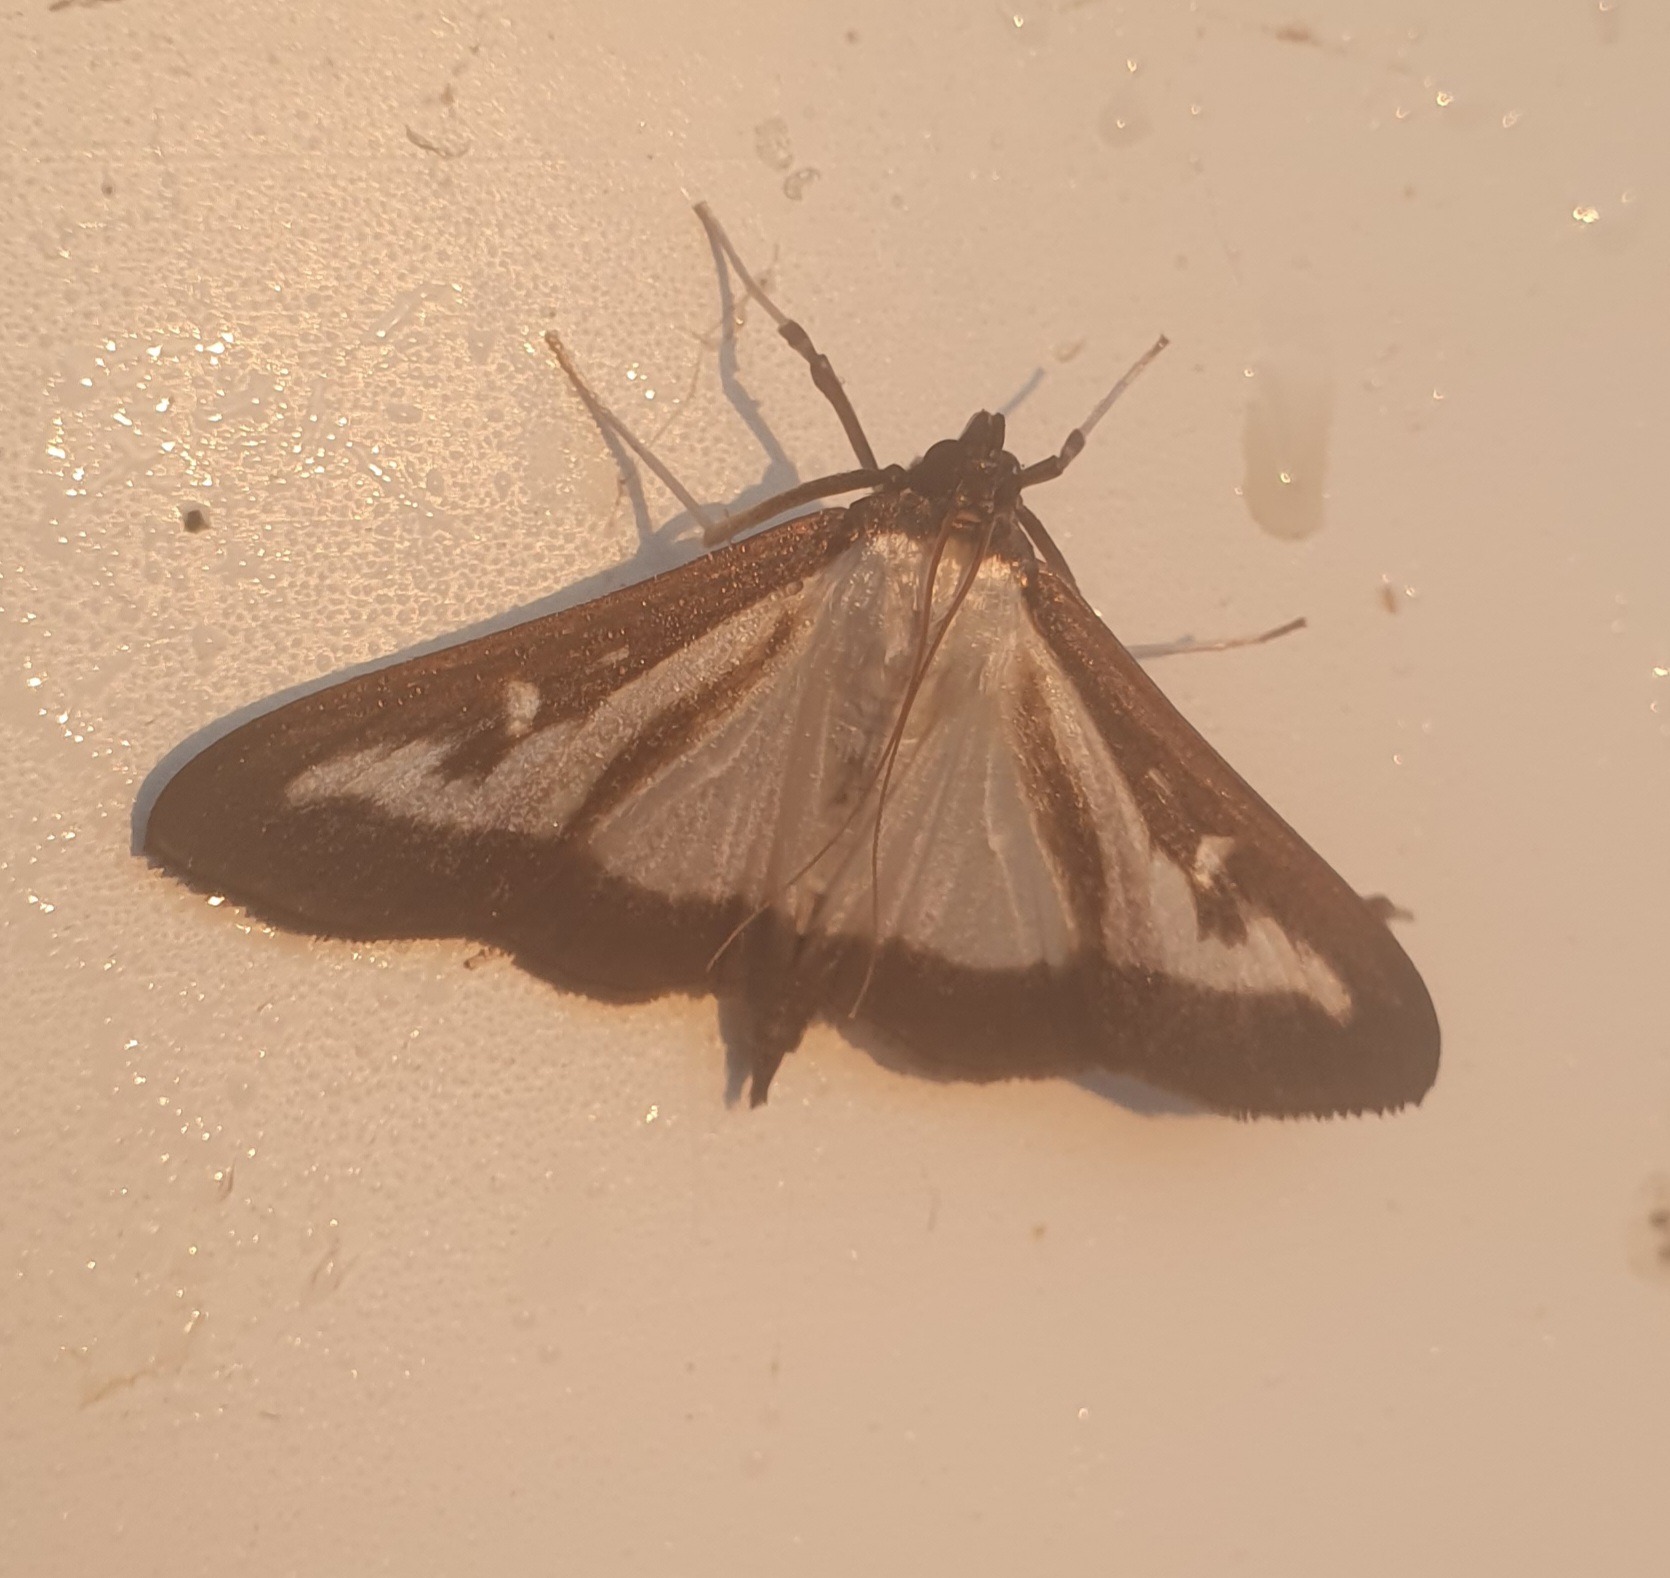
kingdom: Animalia
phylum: Arthropoda
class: Insecta
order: Lepidoptera
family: Crambidae
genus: Cydalima
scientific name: Cydalima perspectalis
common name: Buksbomhalvmøl
